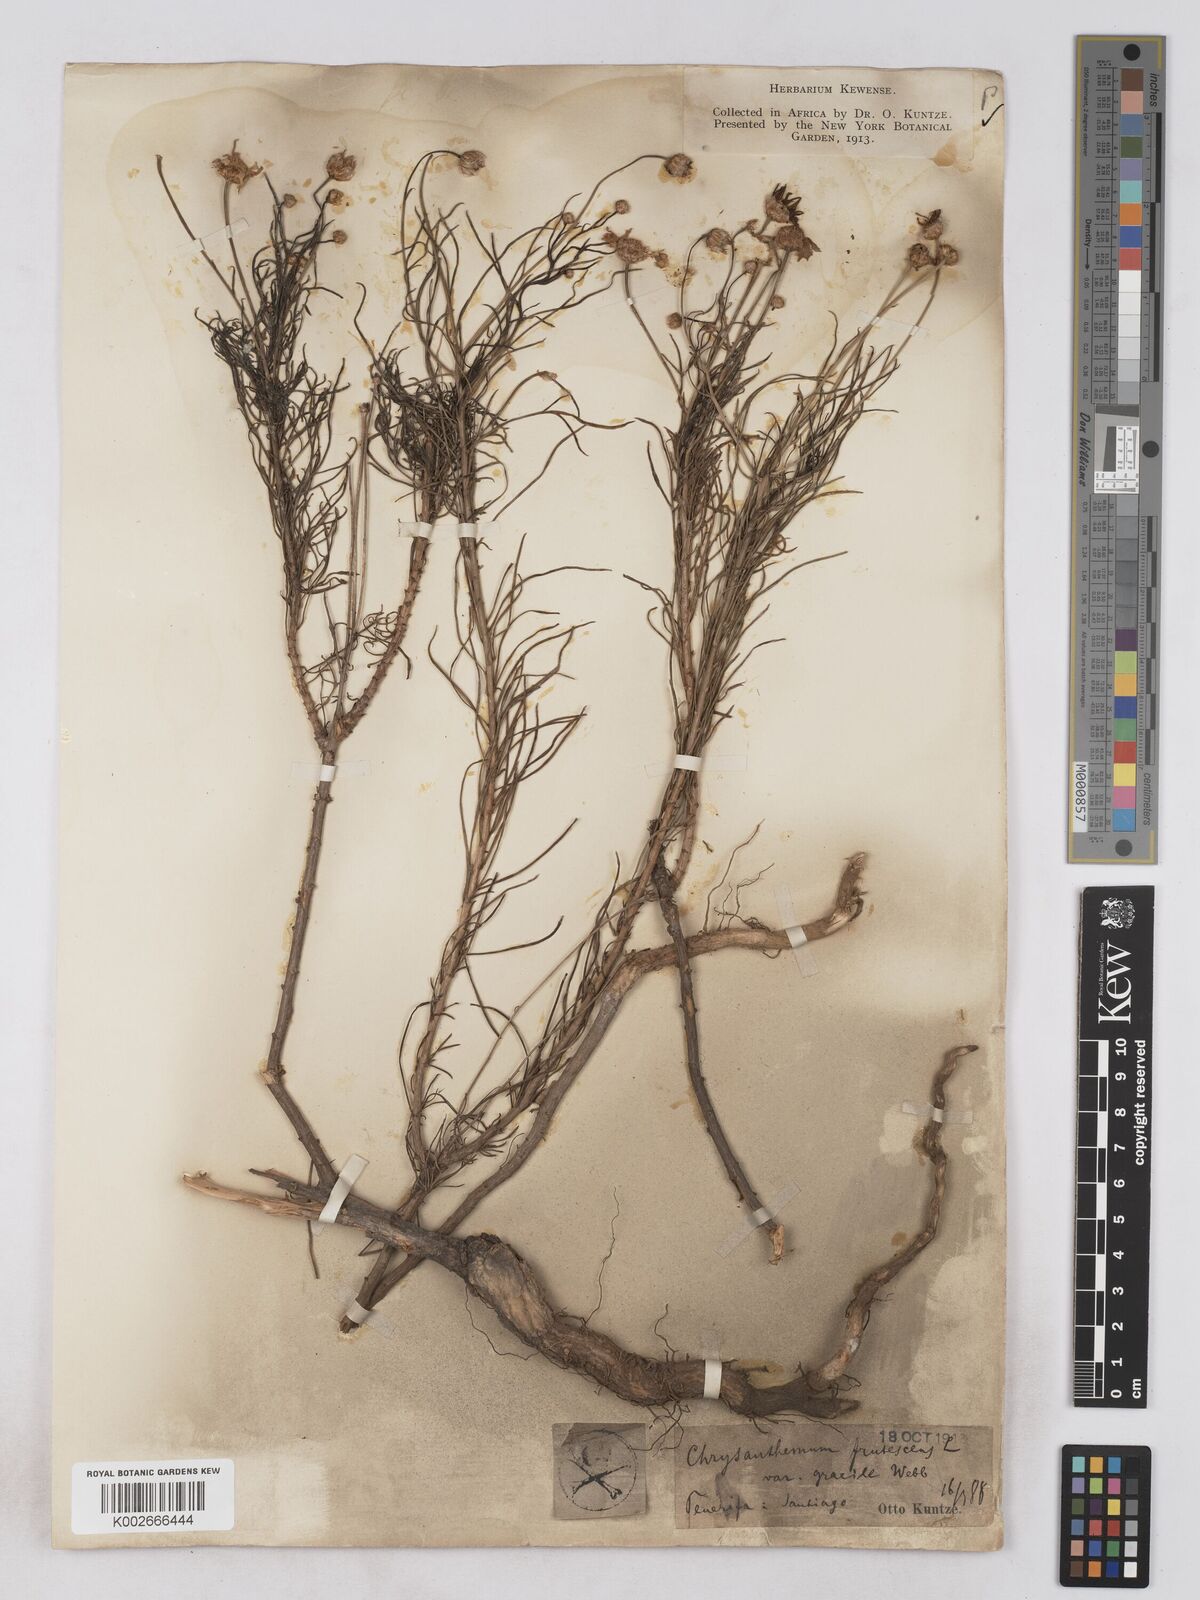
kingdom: Plantae
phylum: Tracheophyta
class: Magnoliopsida
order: Asterales
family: Asteraceae
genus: Argyranthemum
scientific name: Argyranthemum gracile
